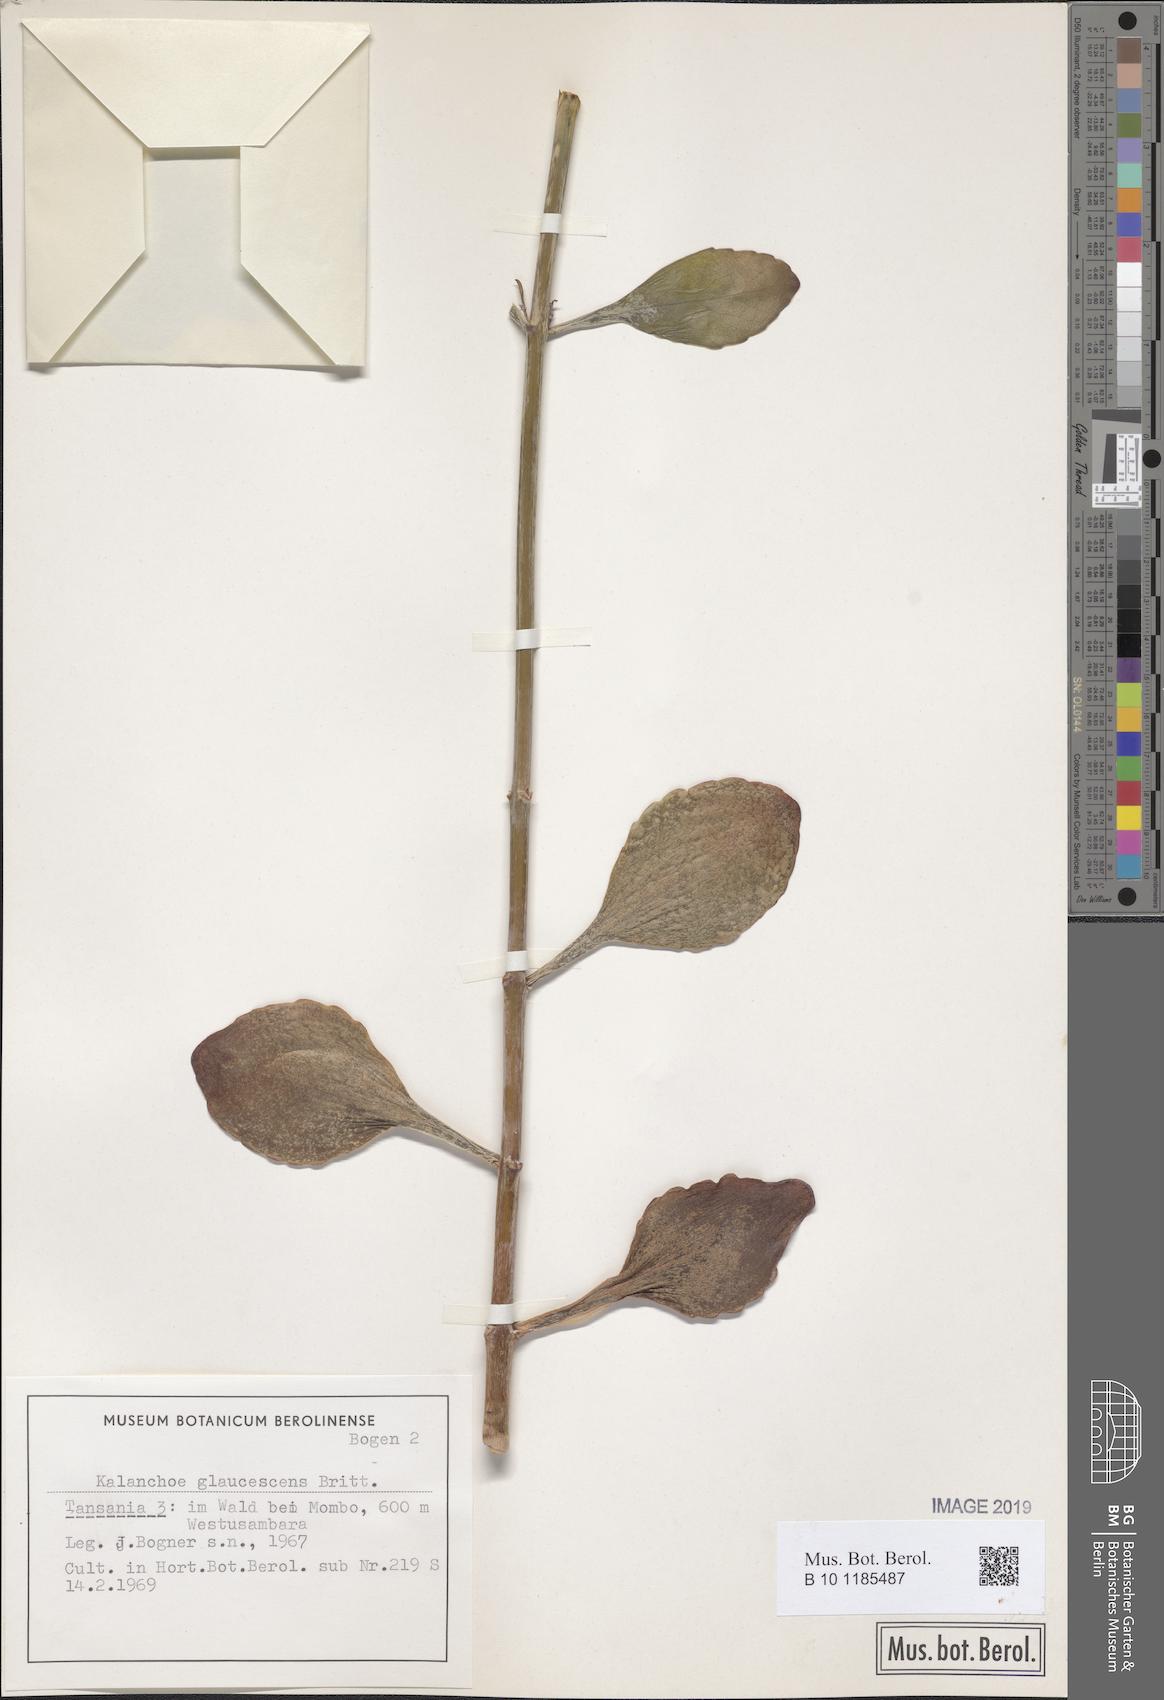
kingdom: Plantae
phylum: Tracheophyta
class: Magnoliopsida
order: Saxifragales
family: Crassulaceae
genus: Kalanchoe
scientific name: Kalanchoe glaucescens
